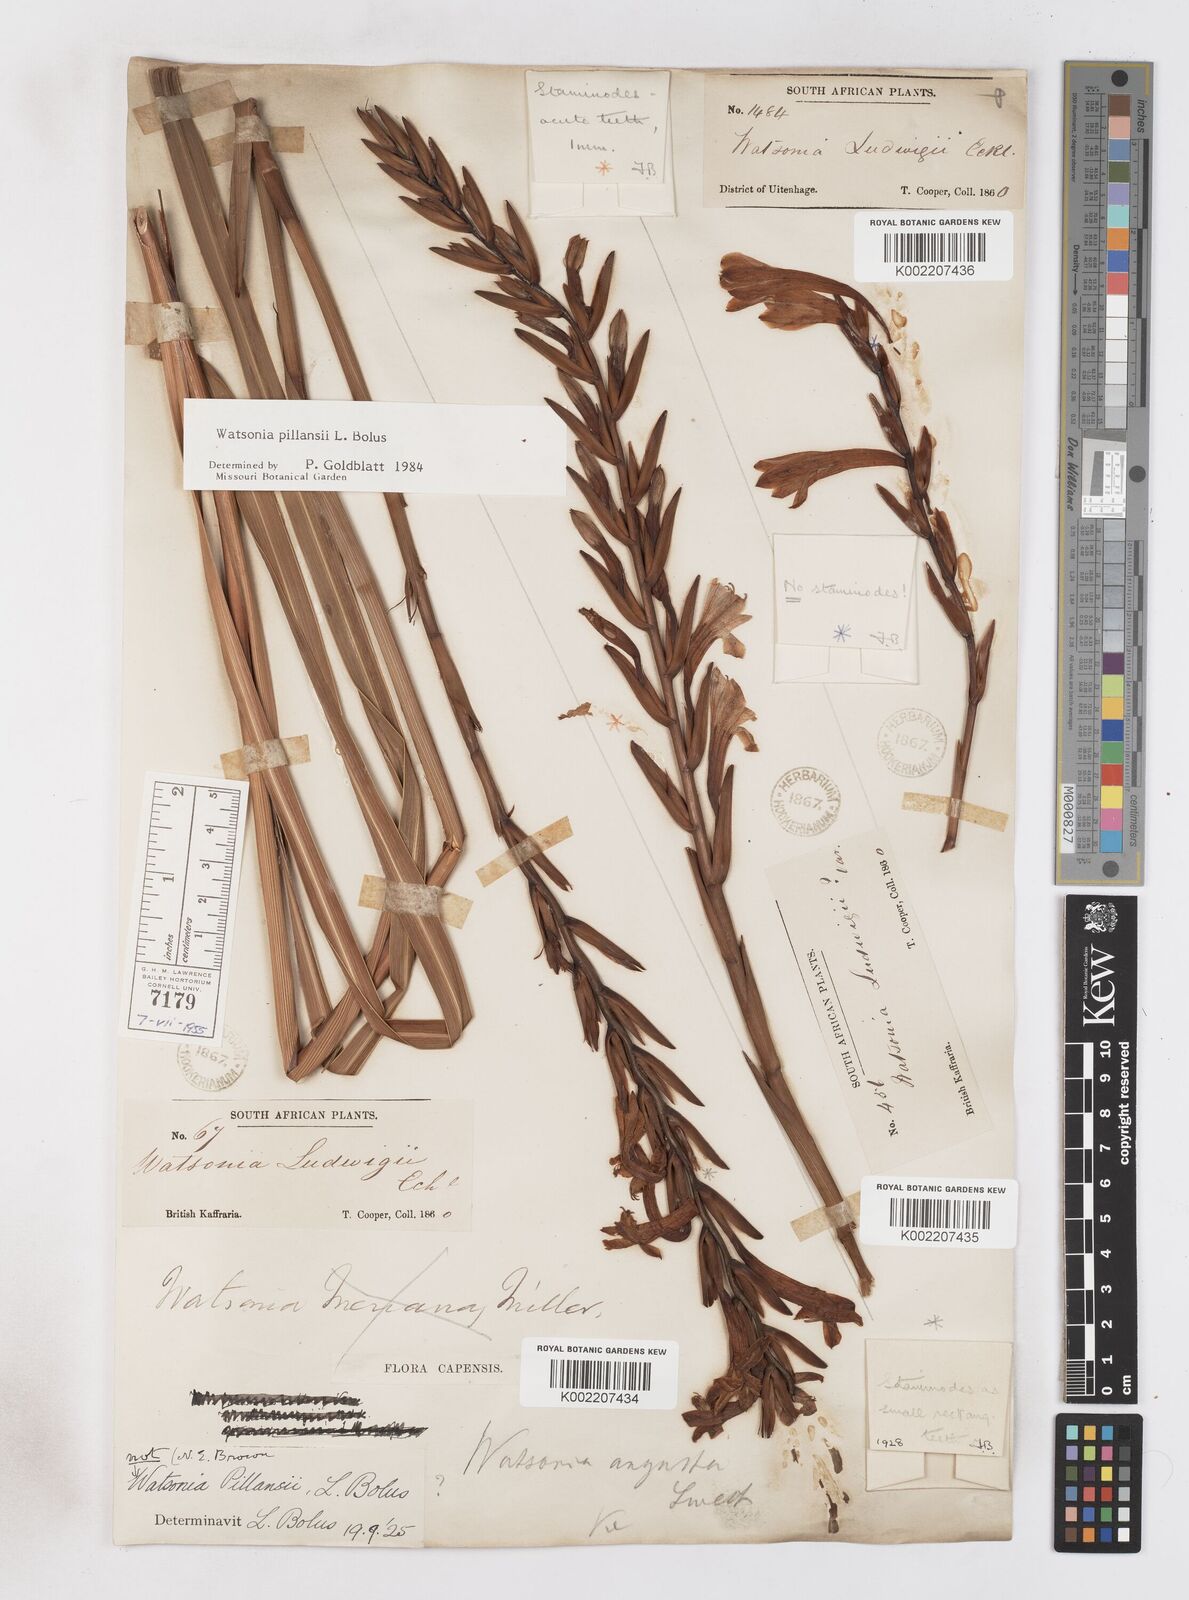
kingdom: Plantae
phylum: Tracheophyta
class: Liliopsida
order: Asparagales
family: Iridaceae
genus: Watsonia
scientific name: Watsonia pillansii
